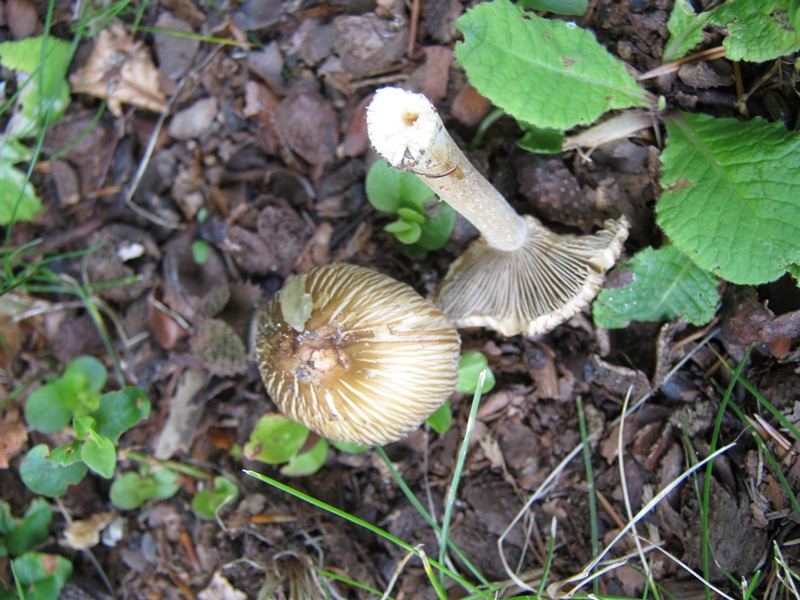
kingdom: Fungi
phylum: Basidiomycota
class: Agaricomycetes
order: Agaricales
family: Inocybaceae
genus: Pseudosperma
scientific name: Pseudosperma rimosum
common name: gulbladet trævlhat
